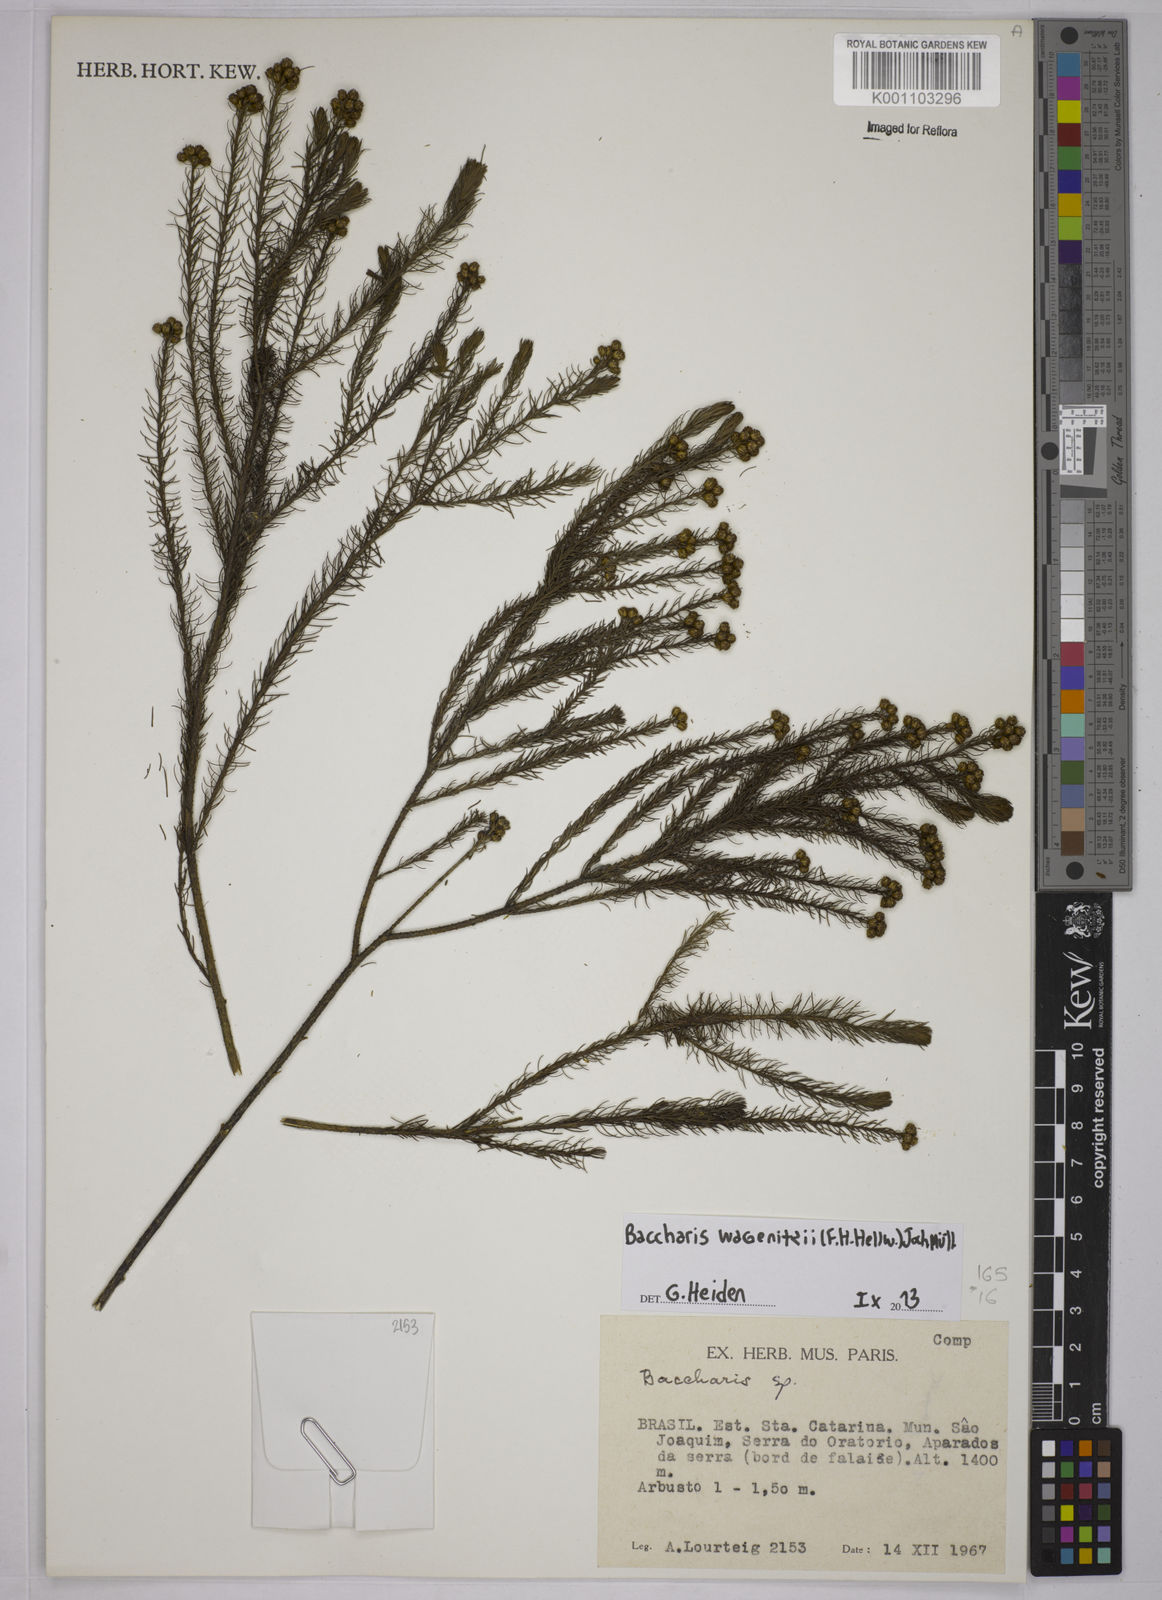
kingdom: Plantae
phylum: Tracheophyta
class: Magnoliopsida
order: Asterales
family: Asteraceae
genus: Baccharis
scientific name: Baccharis
